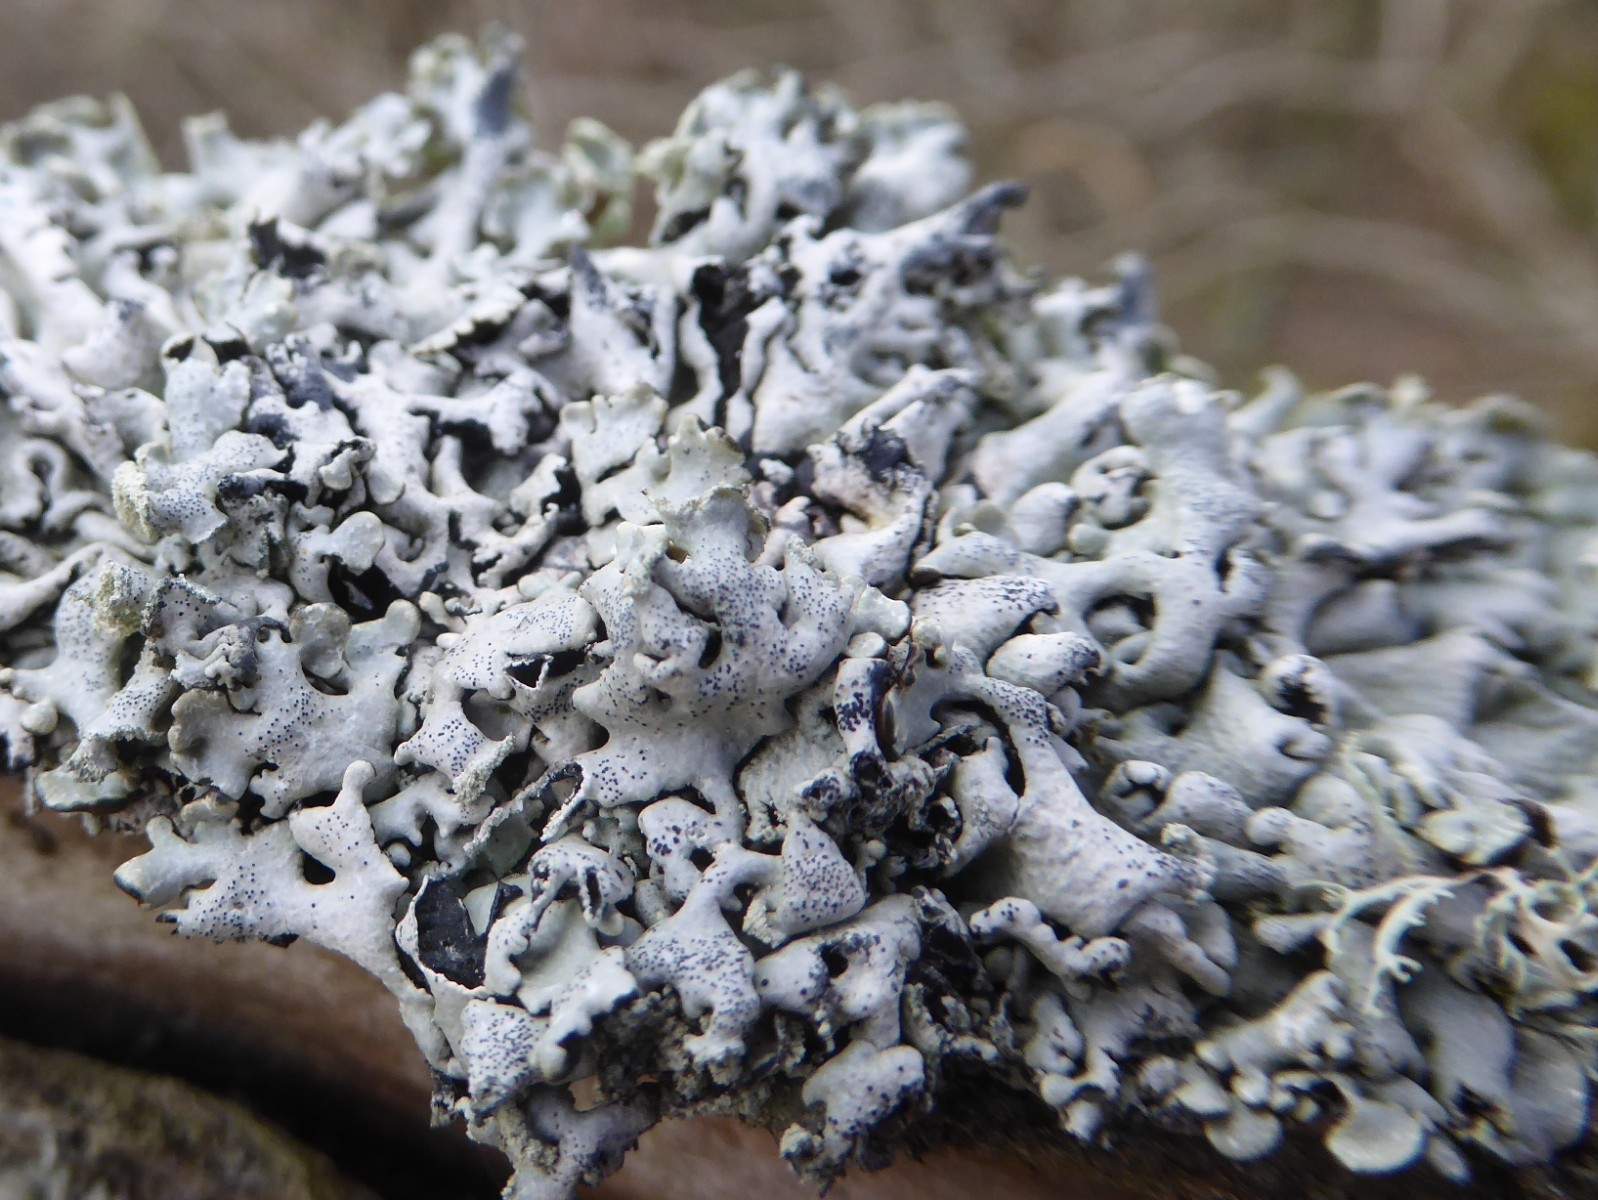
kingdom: Fungi
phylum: Ascomycota
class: Lecanoromycetes
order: Lecanorales
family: Parmeliaceae
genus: Hypogymnia
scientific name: Hypogymnia physodes
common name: almindelig kvistlav
